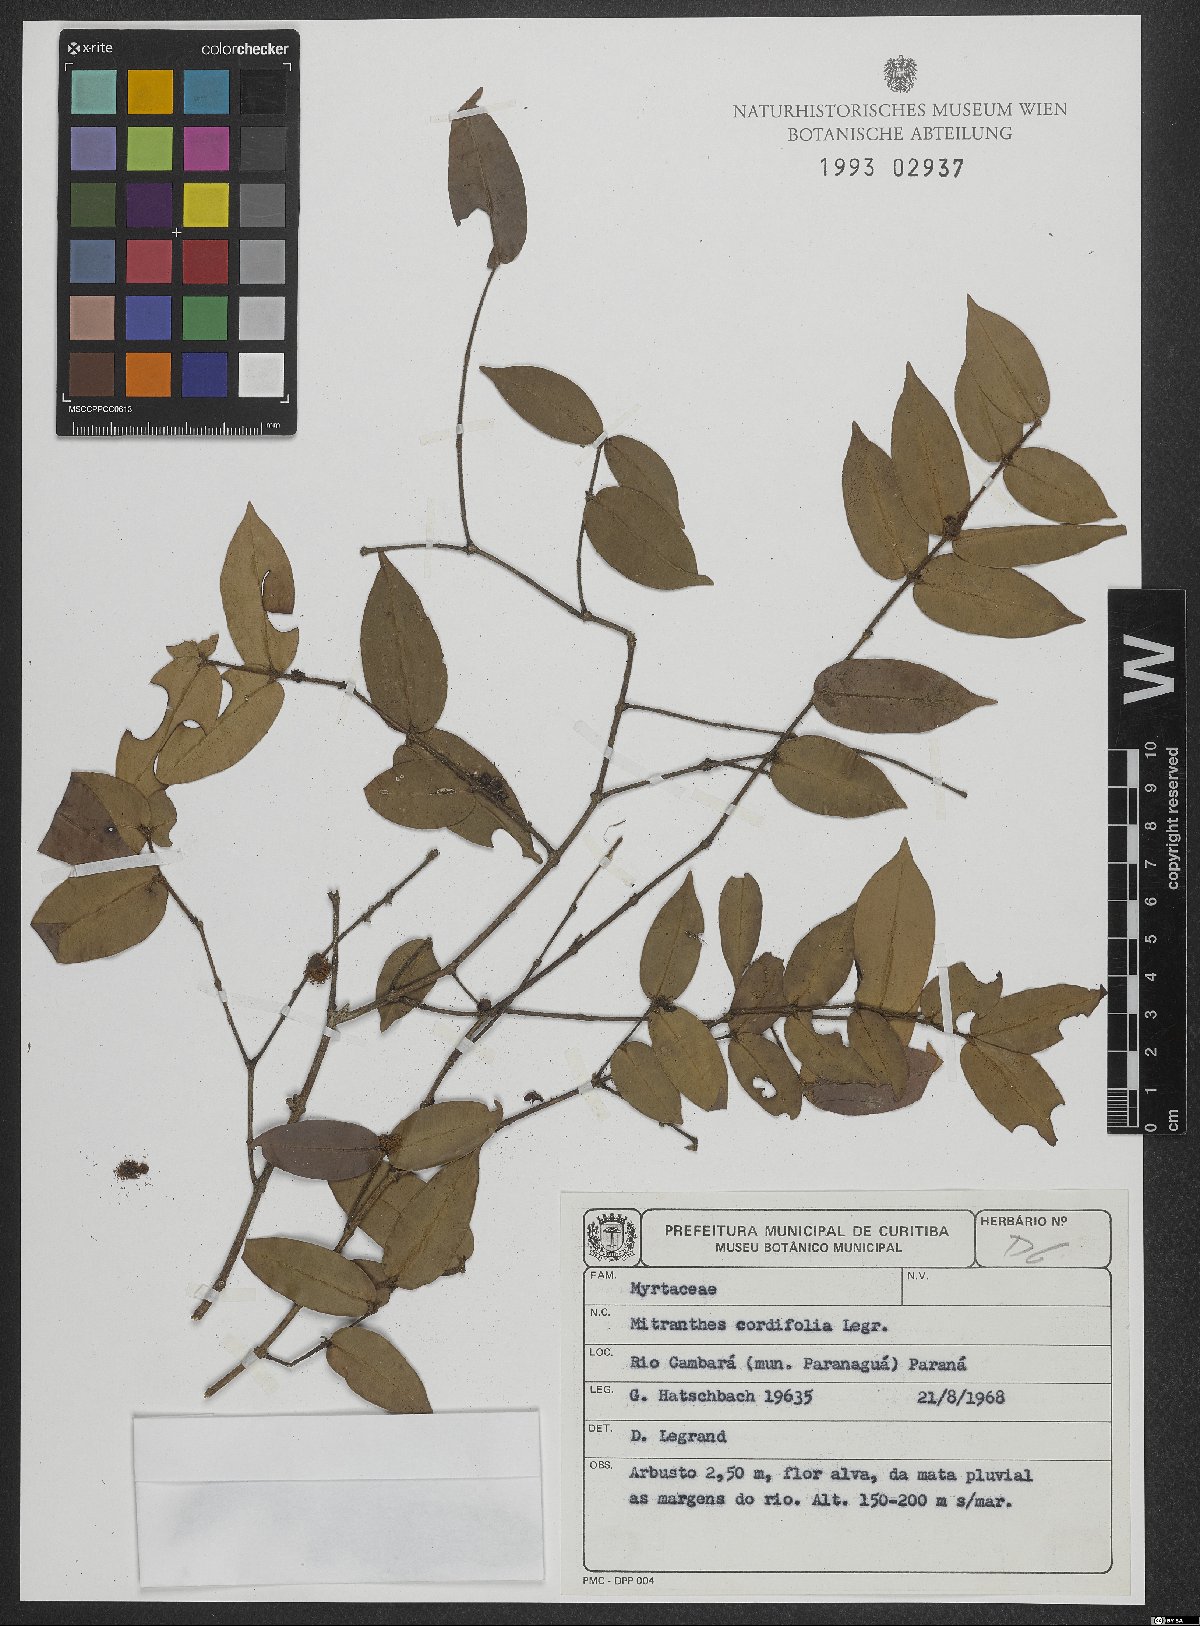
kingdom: Plantae
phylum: Tracheophyta
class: Magnoliopsida
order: Myrtales
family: Myrtaceae
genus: Neomitranthes
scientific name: Neomitranthes cordifolia
